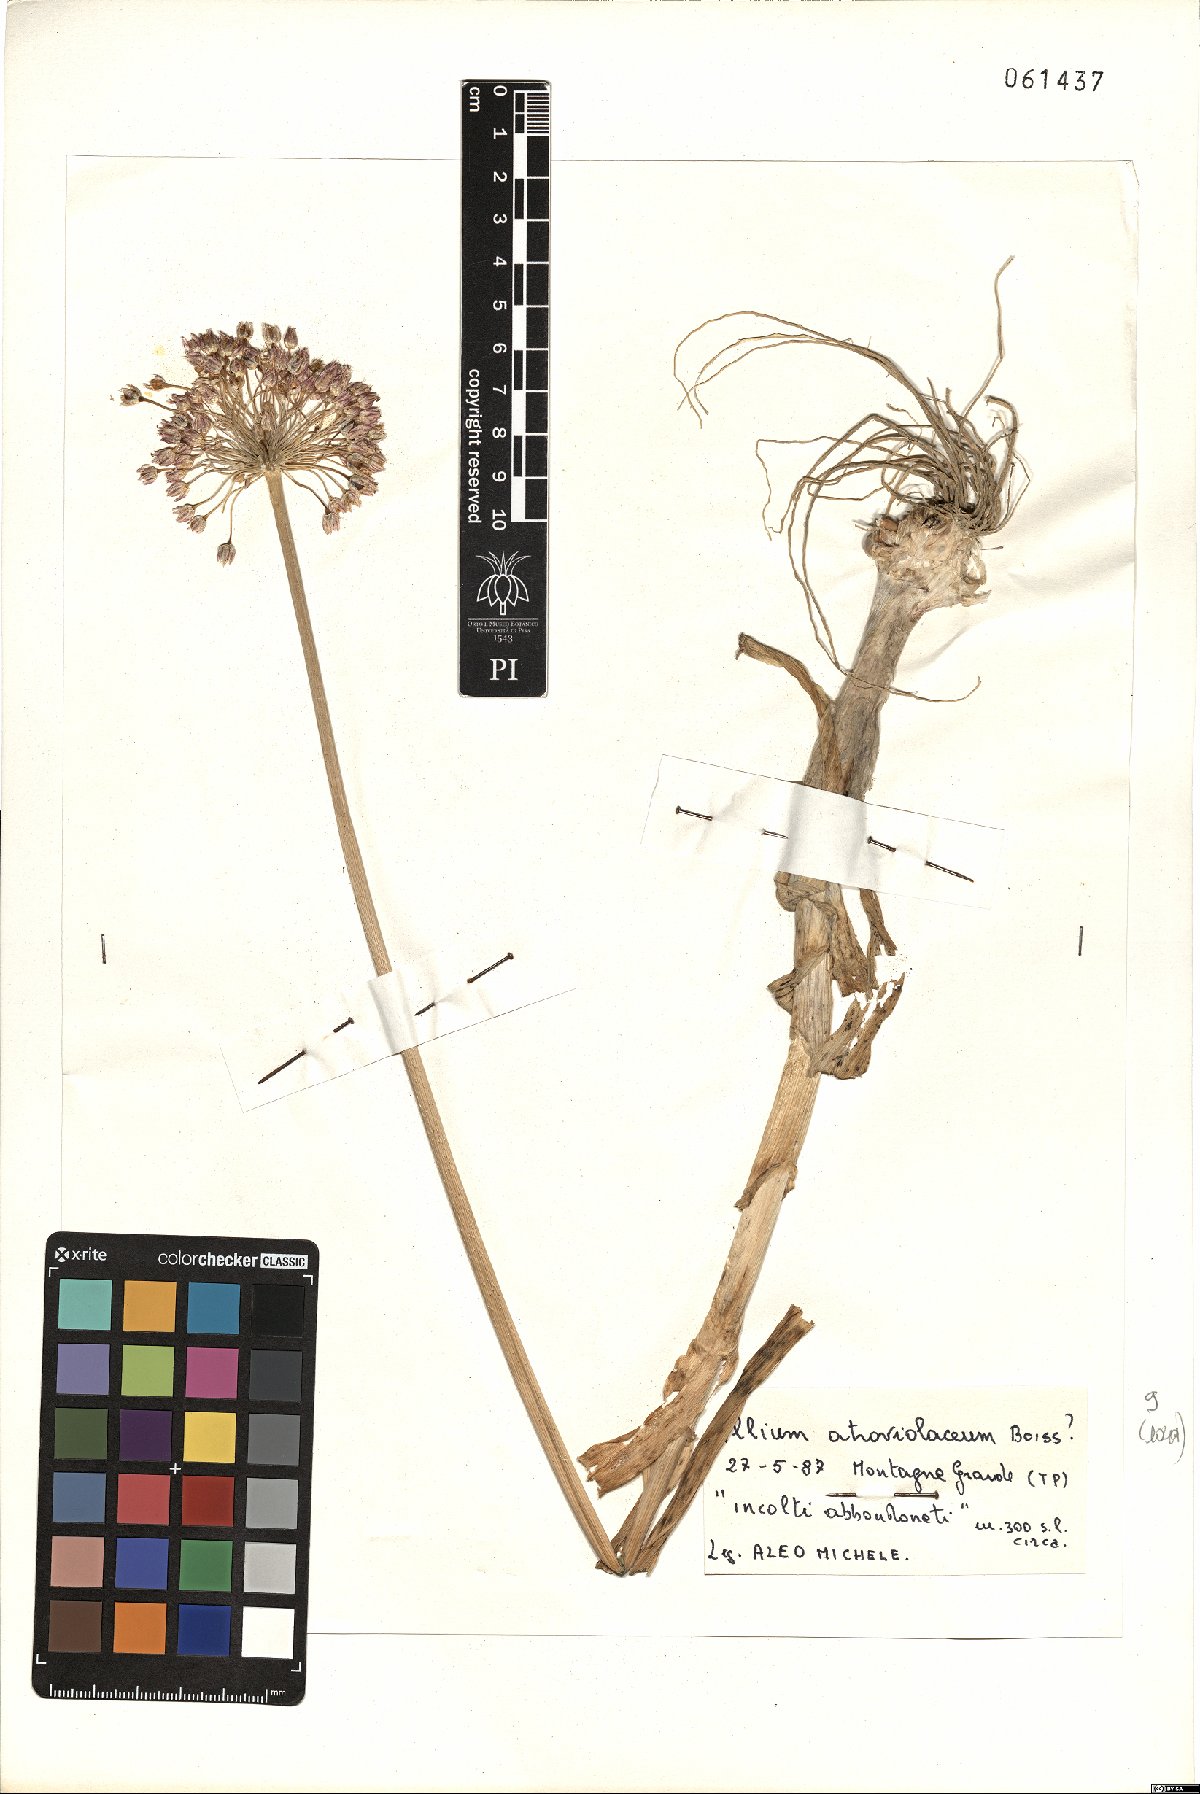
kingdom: Plantae
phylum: Tracheophyta
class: Liliopsida
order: Asparagales
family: Amaryllidaceae
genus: Allium
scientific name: Allium atroviolaceum
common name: Broadleaf wild leek
